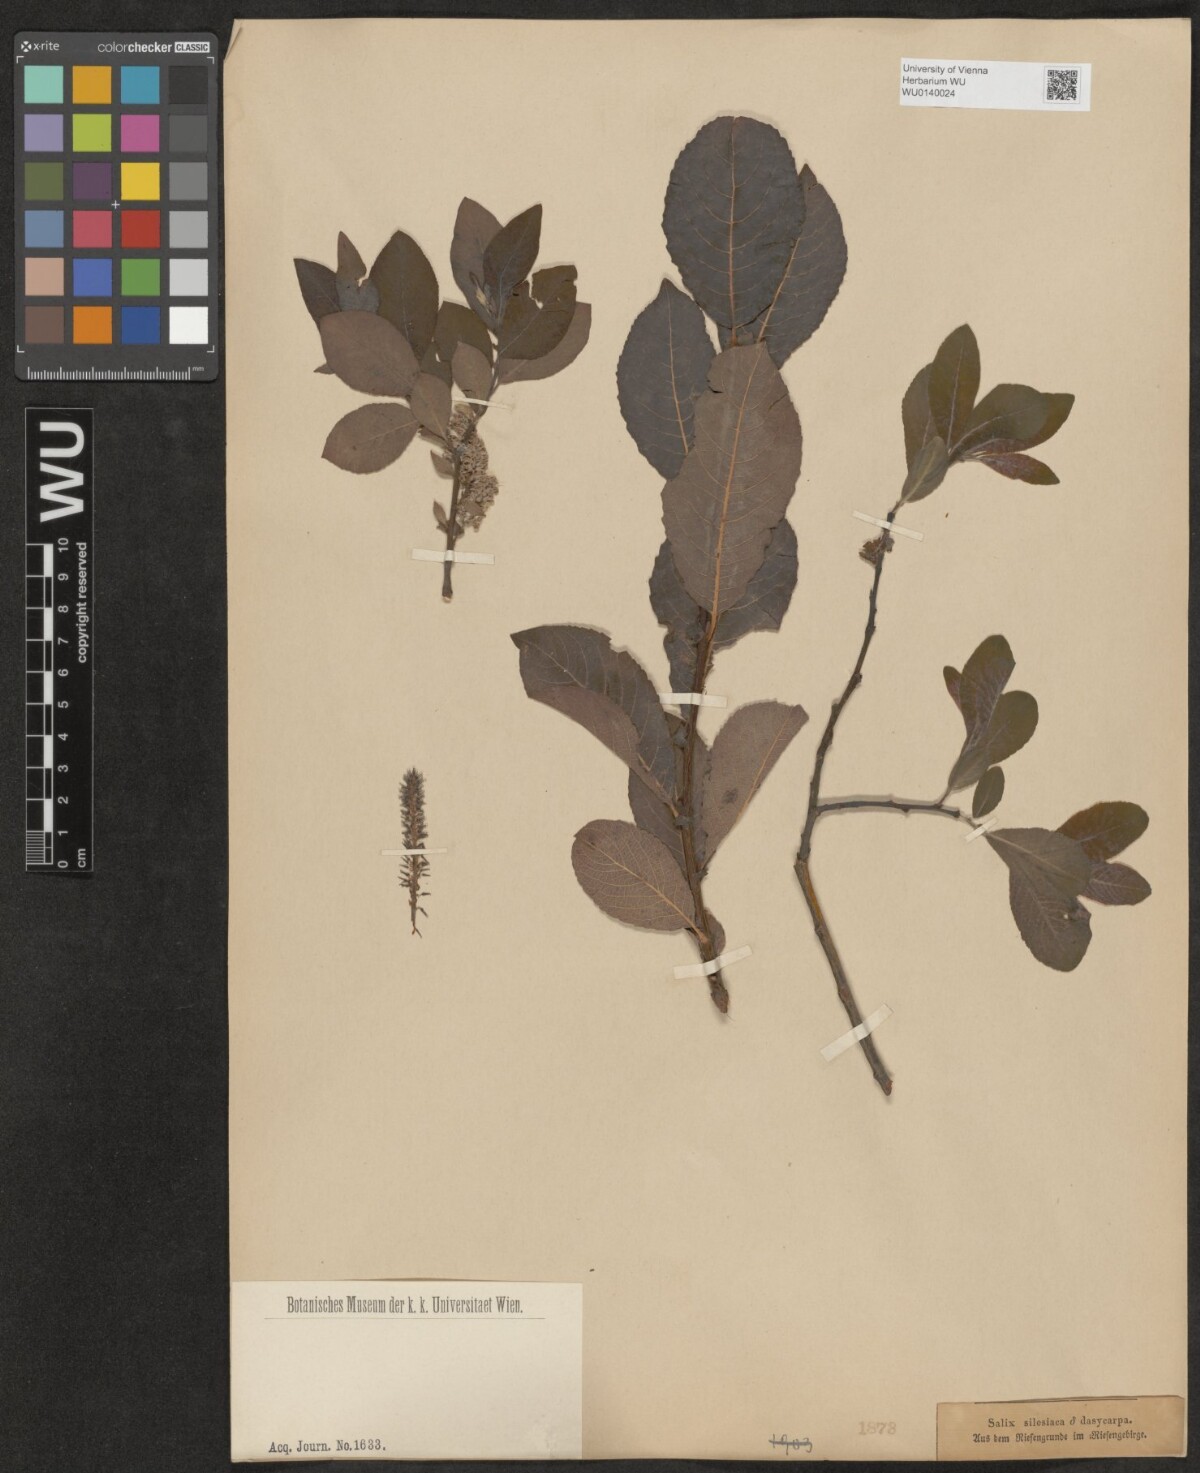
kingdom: Plantae
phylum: Tracheophyta
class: Magnoliopsida
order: Malpighiales
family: Salicaceae
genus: Salix
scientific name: Salix silesiaca
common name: Silesian willow
